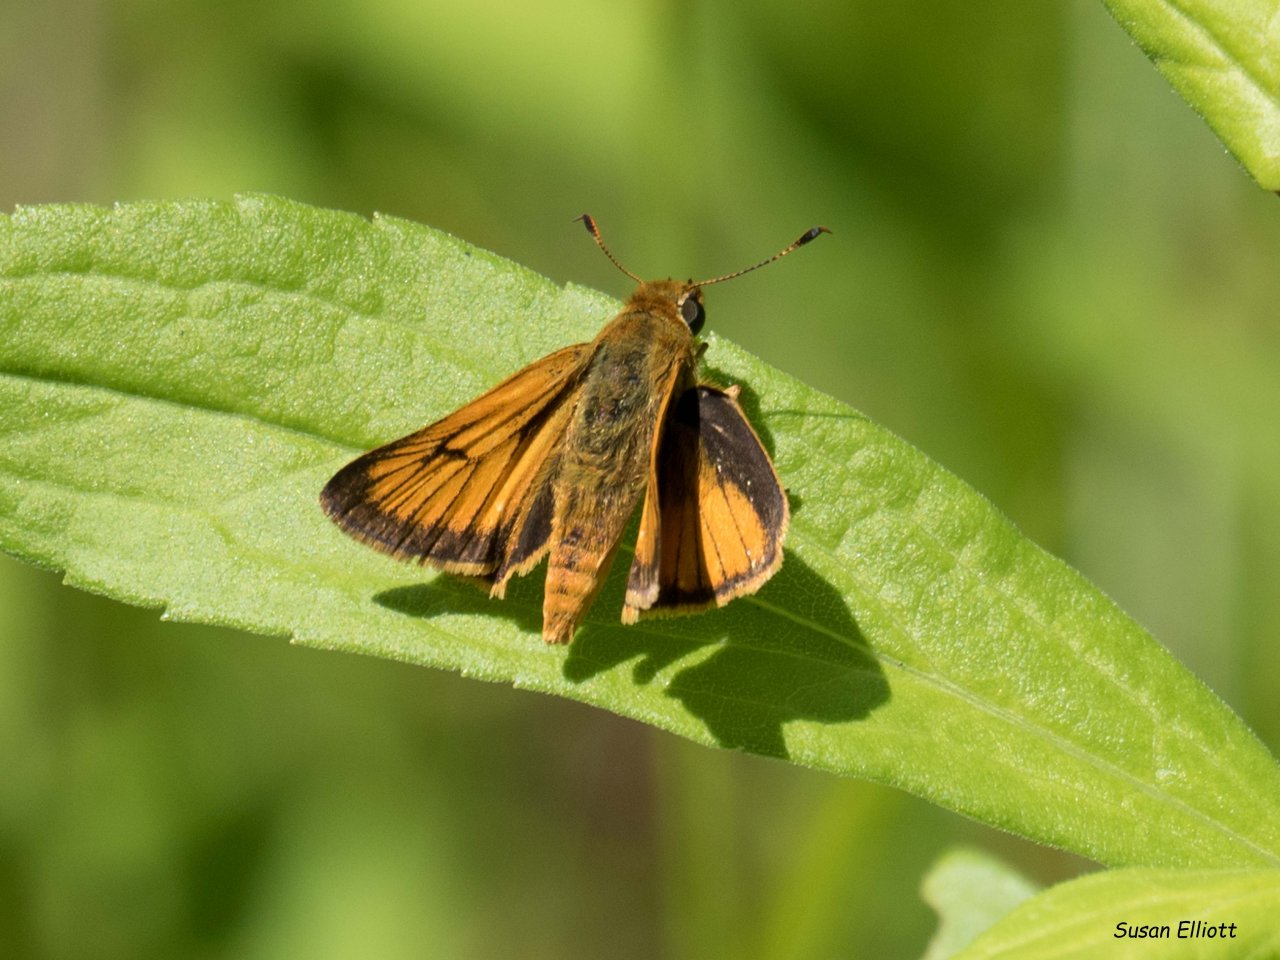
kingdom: Animalia
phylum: Arthropoda
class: Insecta
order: Lepidoptera
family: Hesperiidae
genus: Atrytone
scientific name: Atrytone delaware
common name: Delaware Skipper
